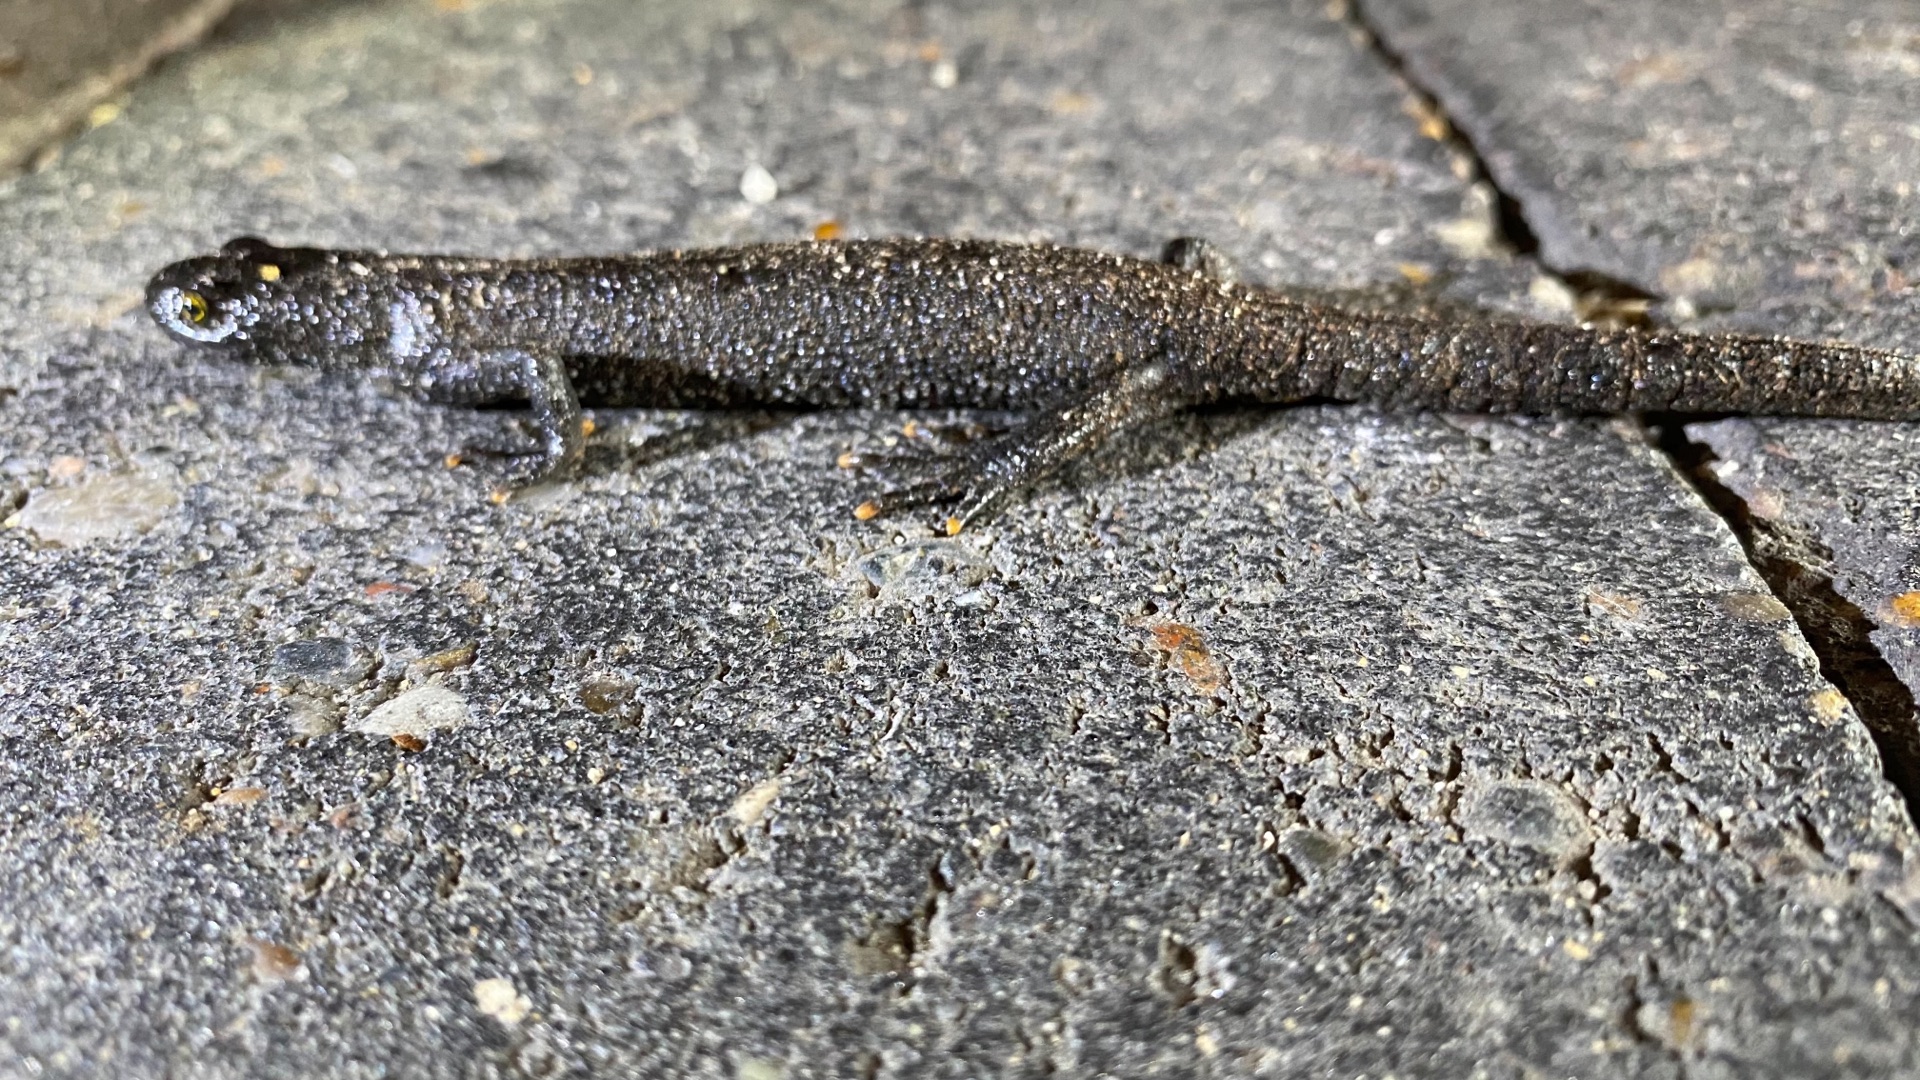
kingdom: Animalia
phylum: Chordata
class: Amphibia
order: Caudata
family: Salamandridae
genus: Triturus
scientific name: Triturus cristatus
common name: Stor vandsalamander
